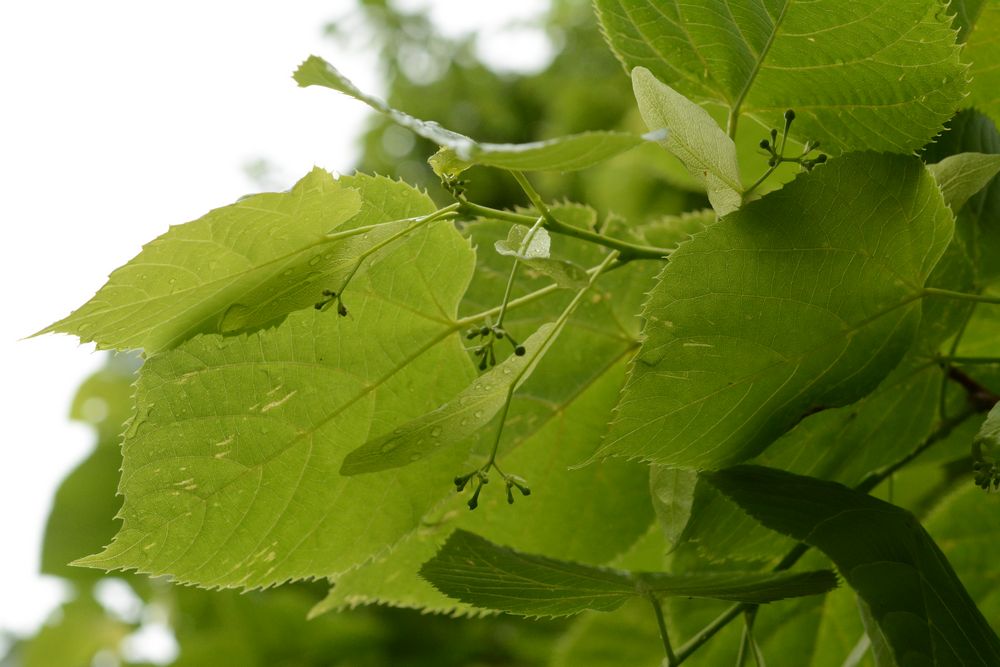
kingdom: Plantae
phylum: Tracheophyta
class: Magnoliopsida
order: Malvales
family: Malvaceae
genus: Tilia
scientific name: Tilia dasystyla
